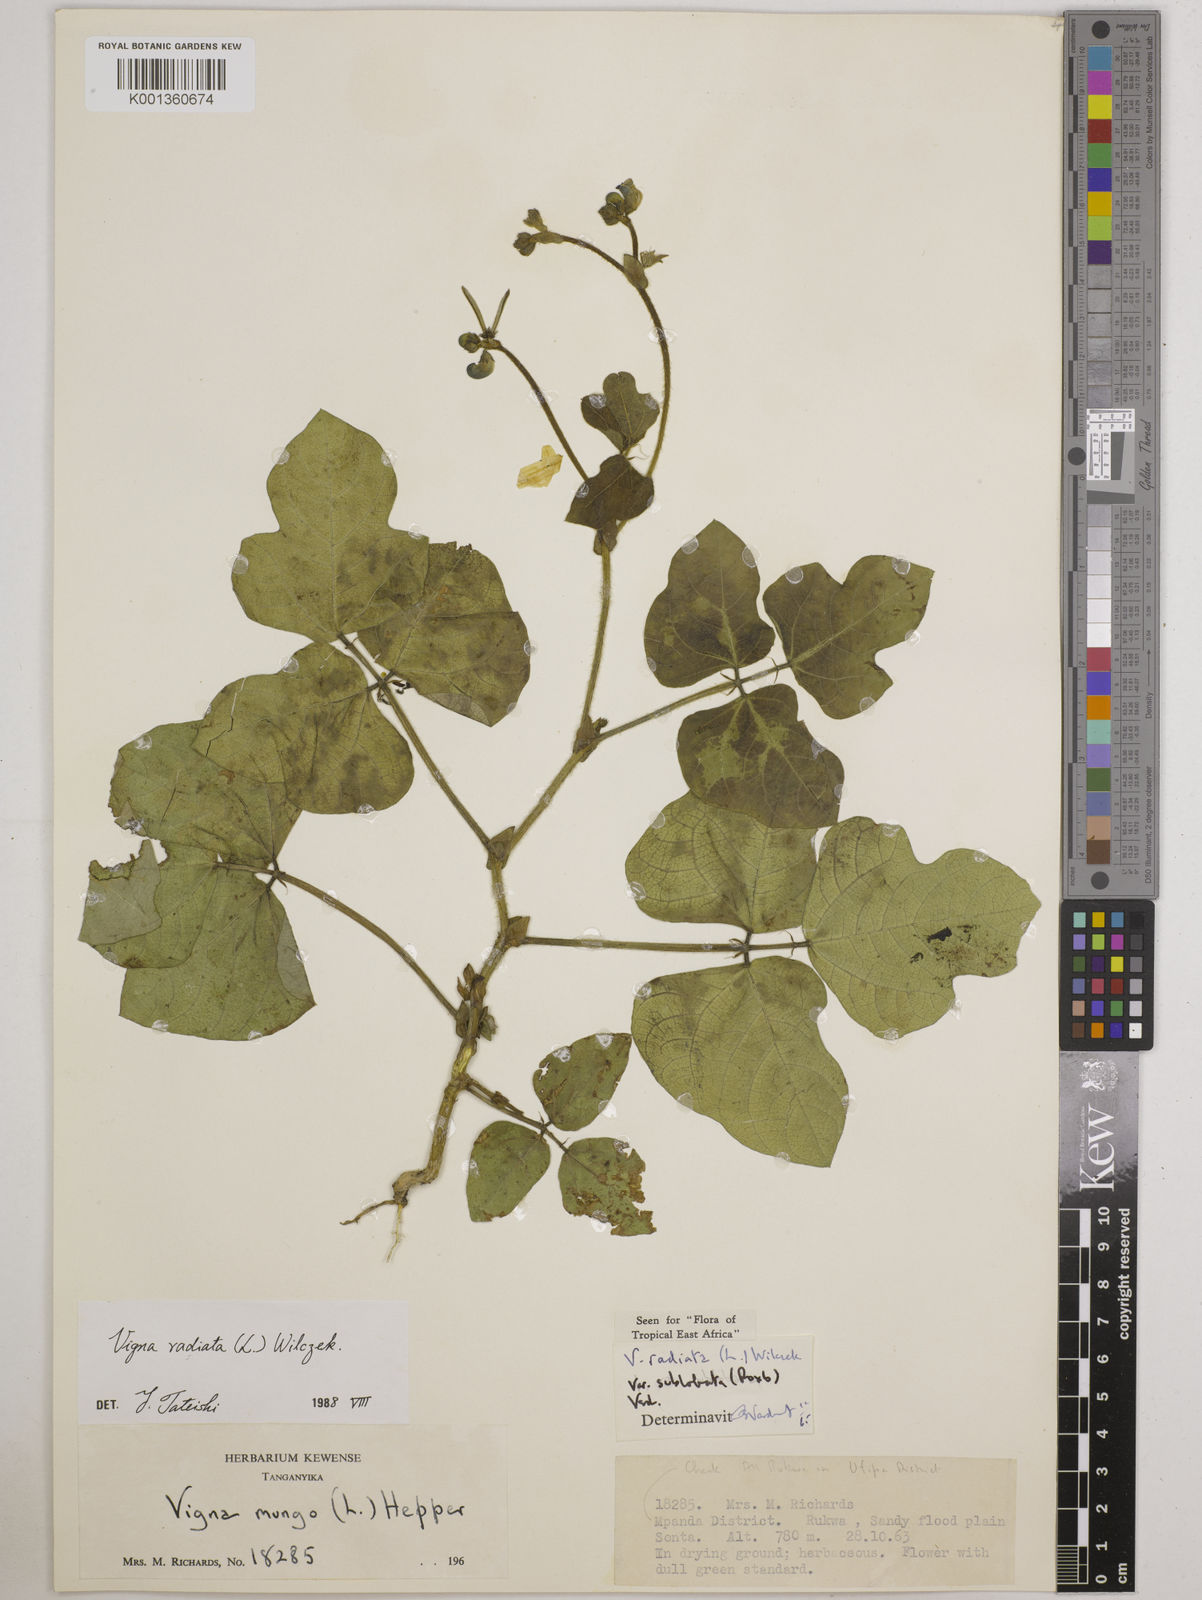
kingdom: Plantae
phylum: Tracheophyta
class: Magnoliopsida
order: Fabales
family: Fabaceae
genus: Vigna
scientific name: Vigna radiata
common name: Mung-bean
